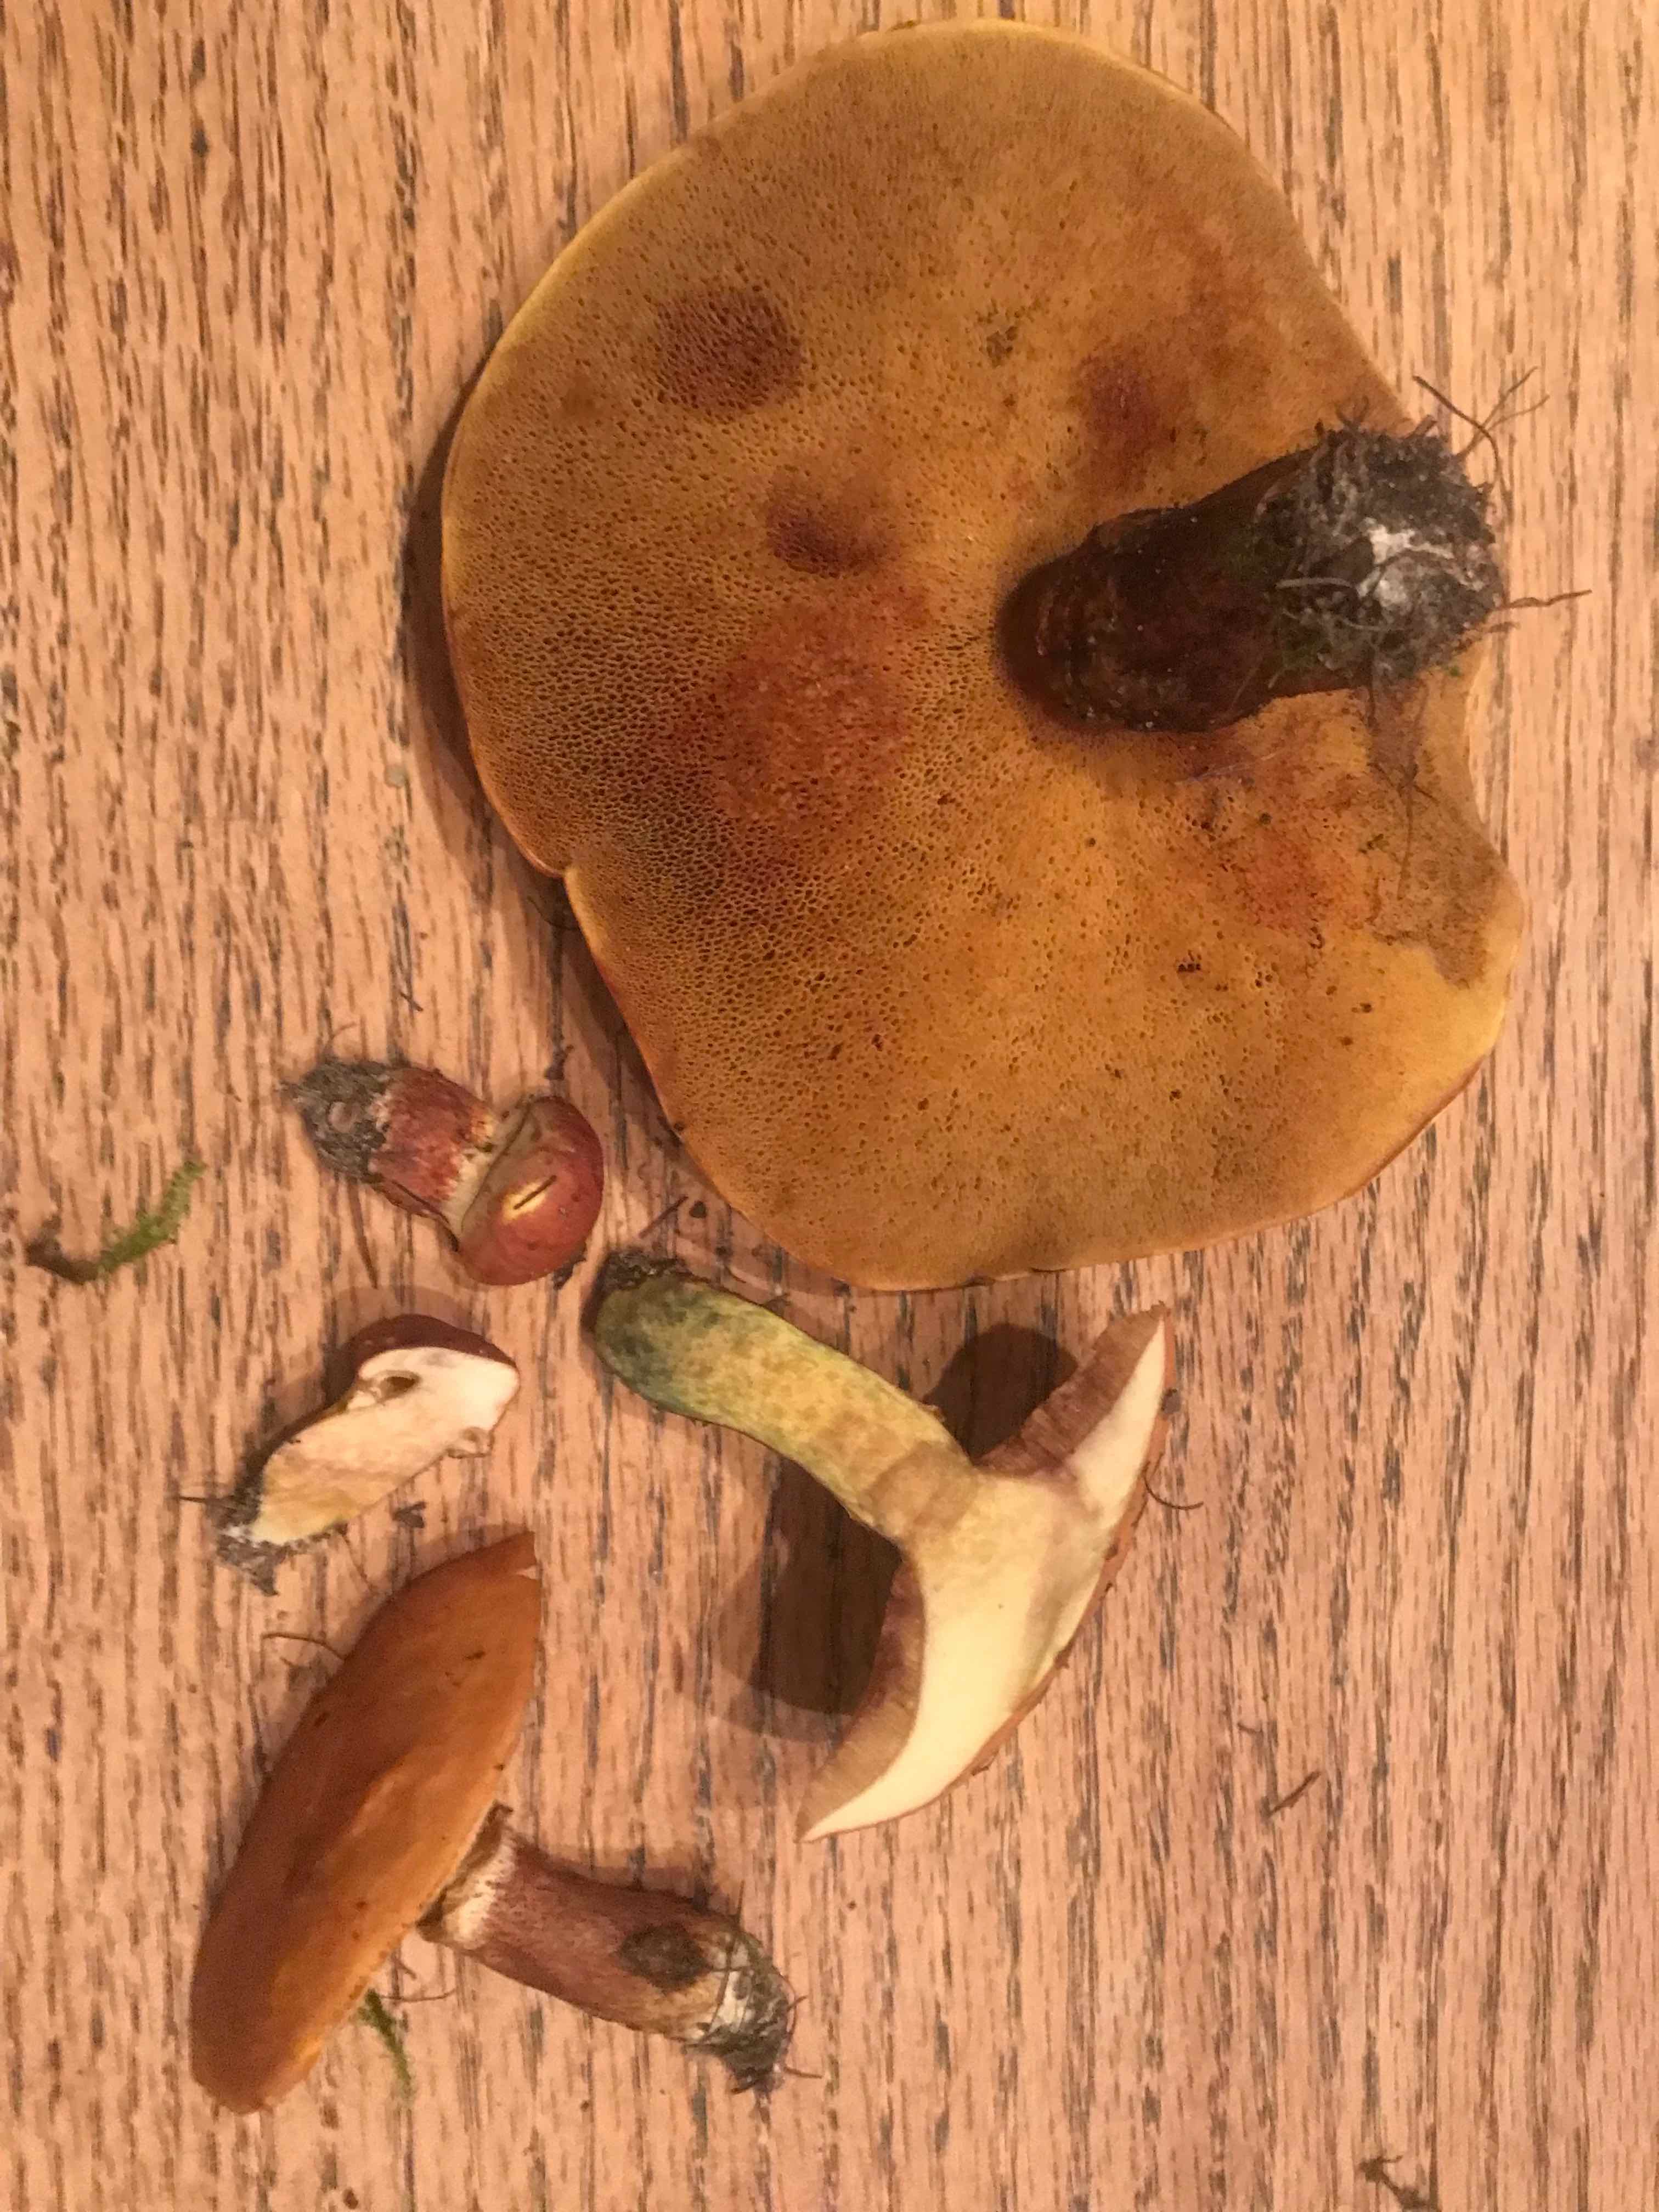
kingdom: Fungi
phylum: Basidiomycota
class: Agaricomycetes
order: Boletales
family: Suillaceae
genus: Suillus
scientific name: Suillus grevillei
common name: Larch bolete
